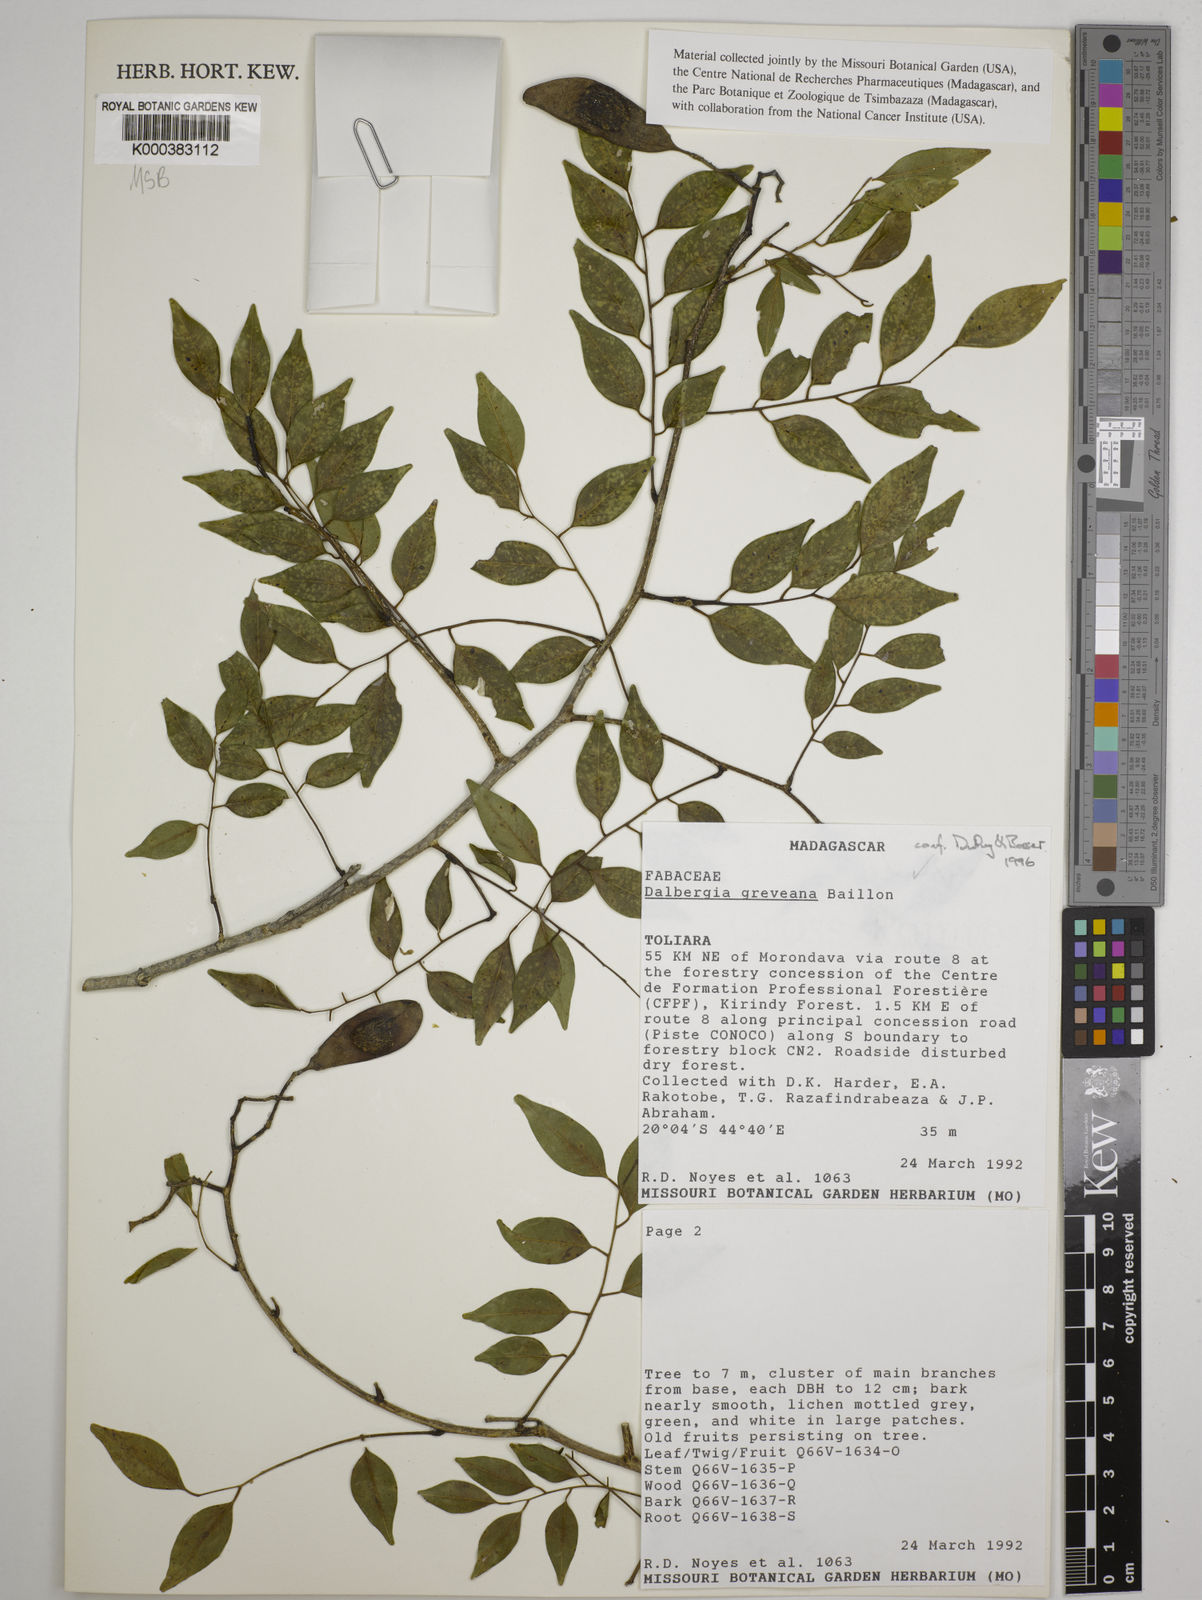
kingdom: Plantae
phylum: Tracheophyta
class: Magnoliopsida
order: Fabales
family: Fabaceae
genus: Dalbergia
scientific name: Dalbergia greveana
